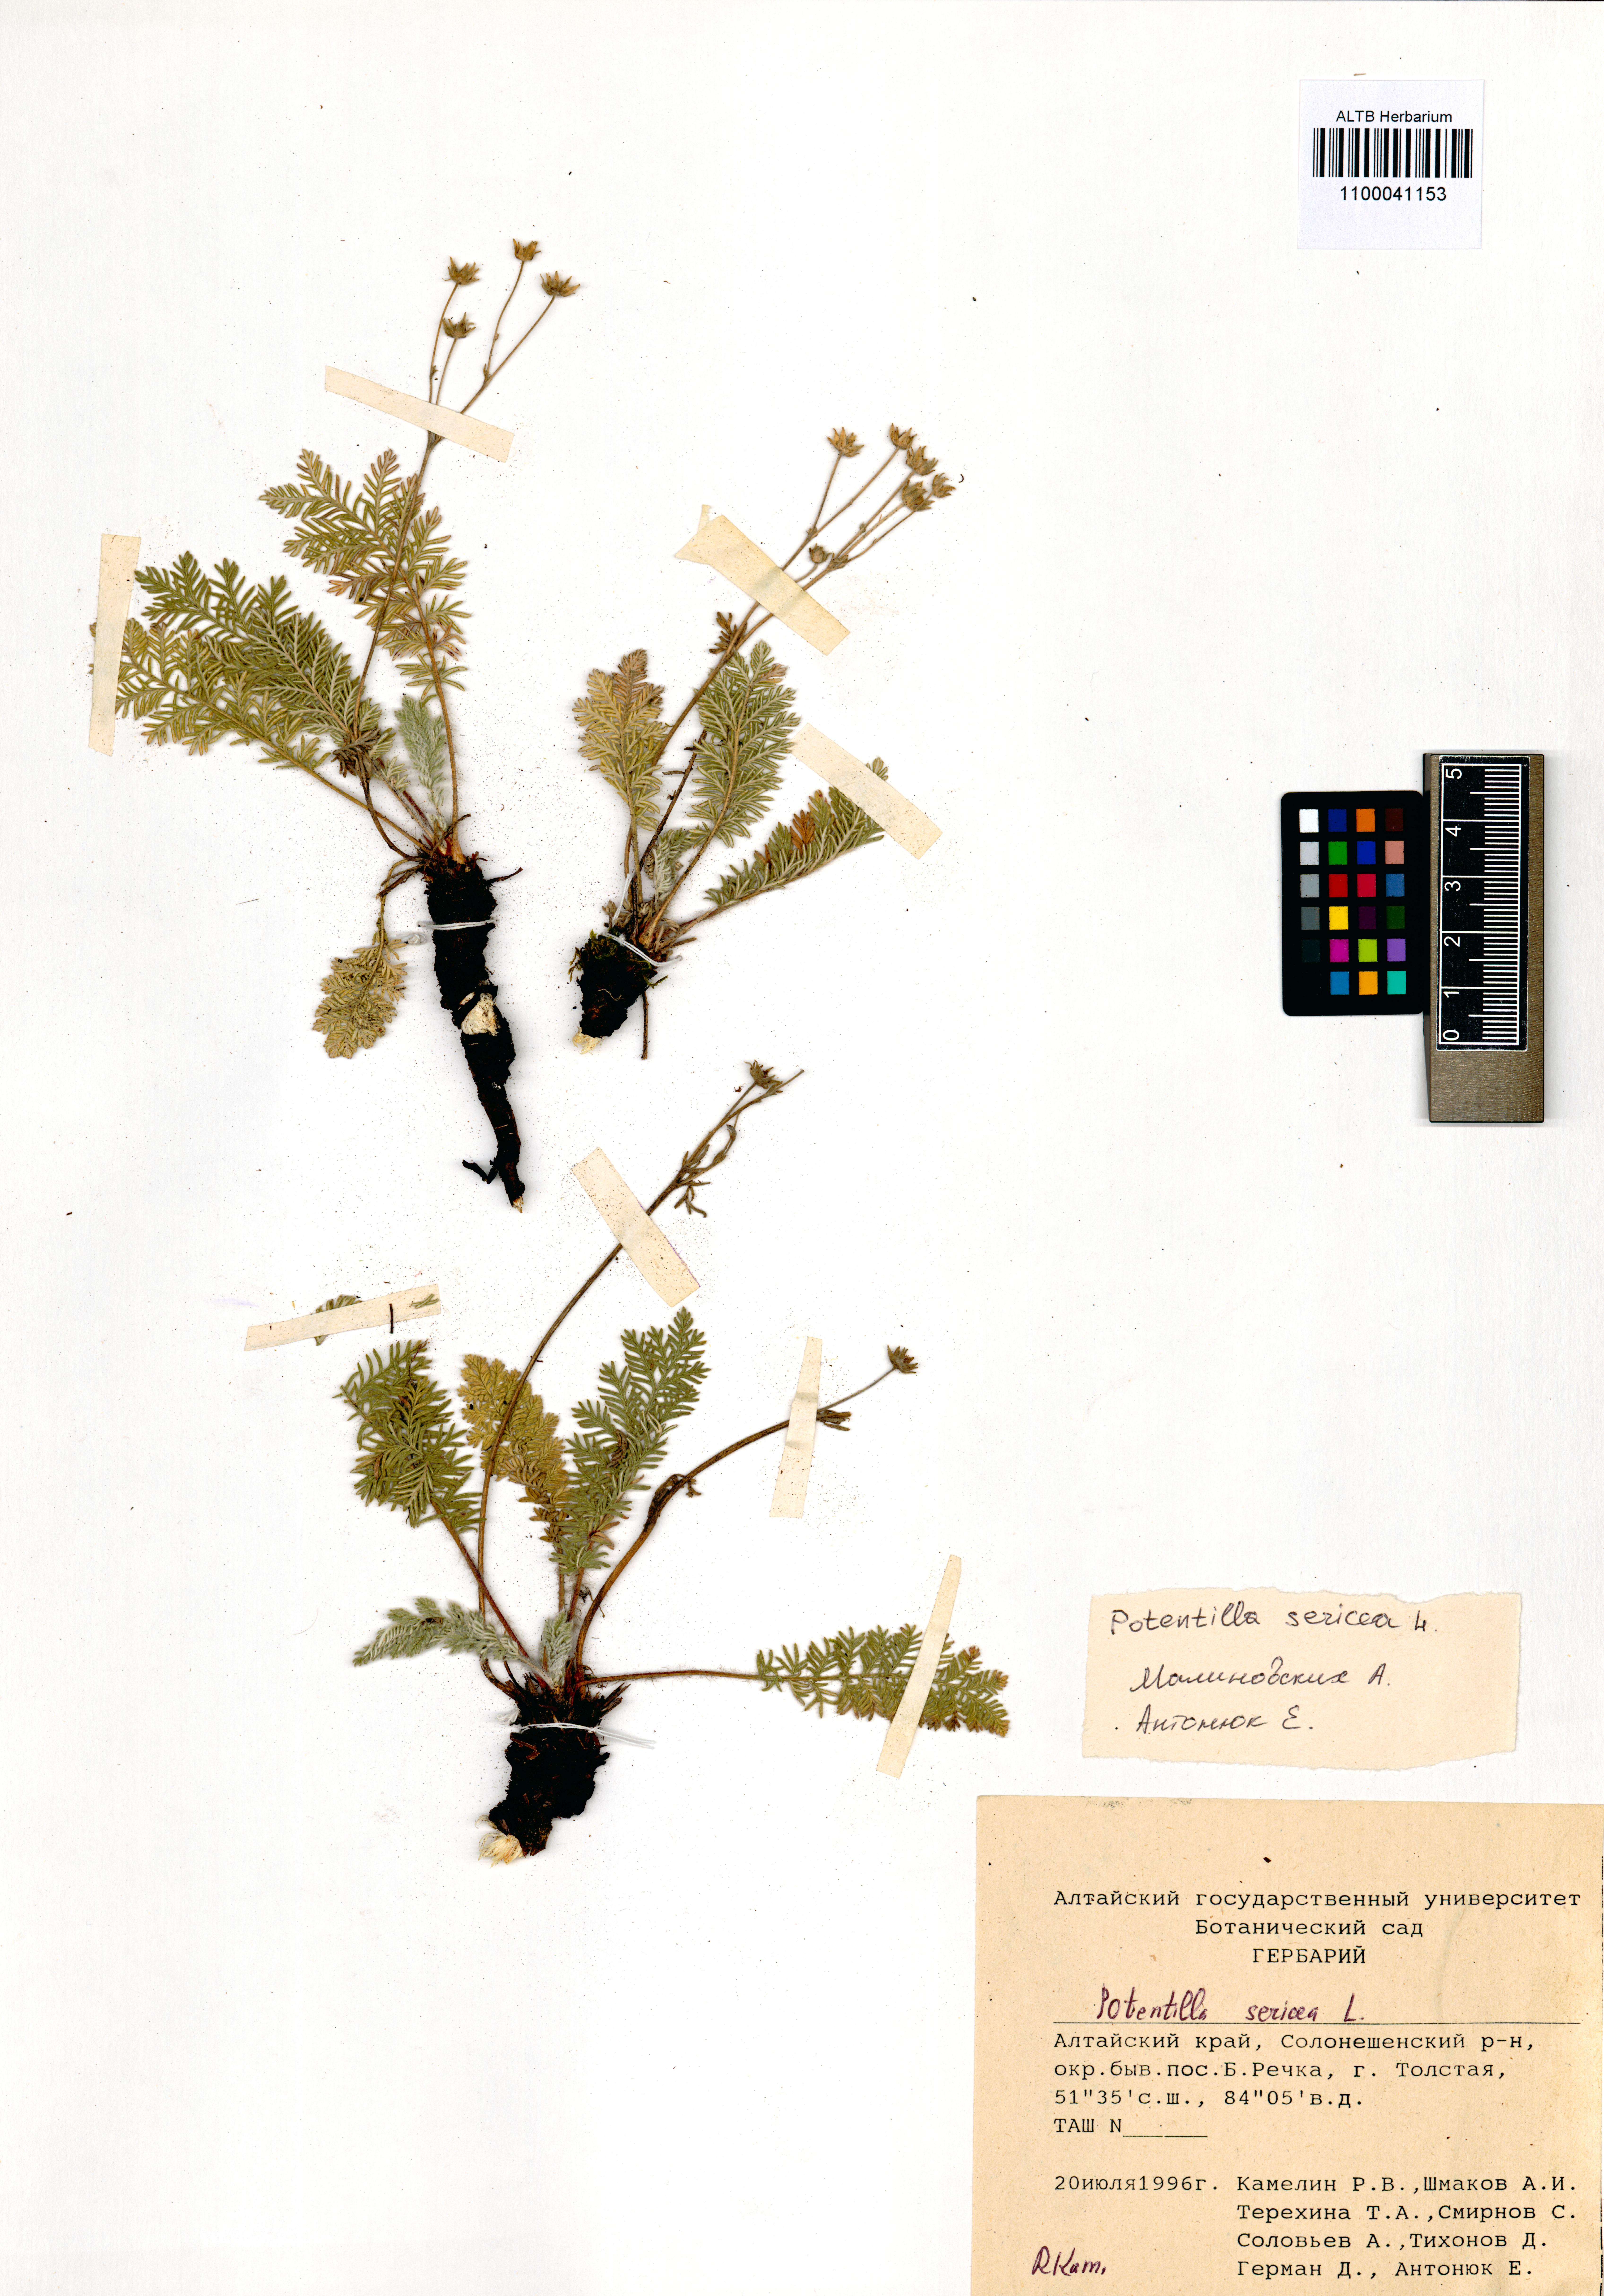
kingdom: Plantae
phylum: Tracheophyta
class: Magnoliopsida
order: Rosales
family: Rosaceae
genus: Potentilla
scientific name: Potentilla sericea
